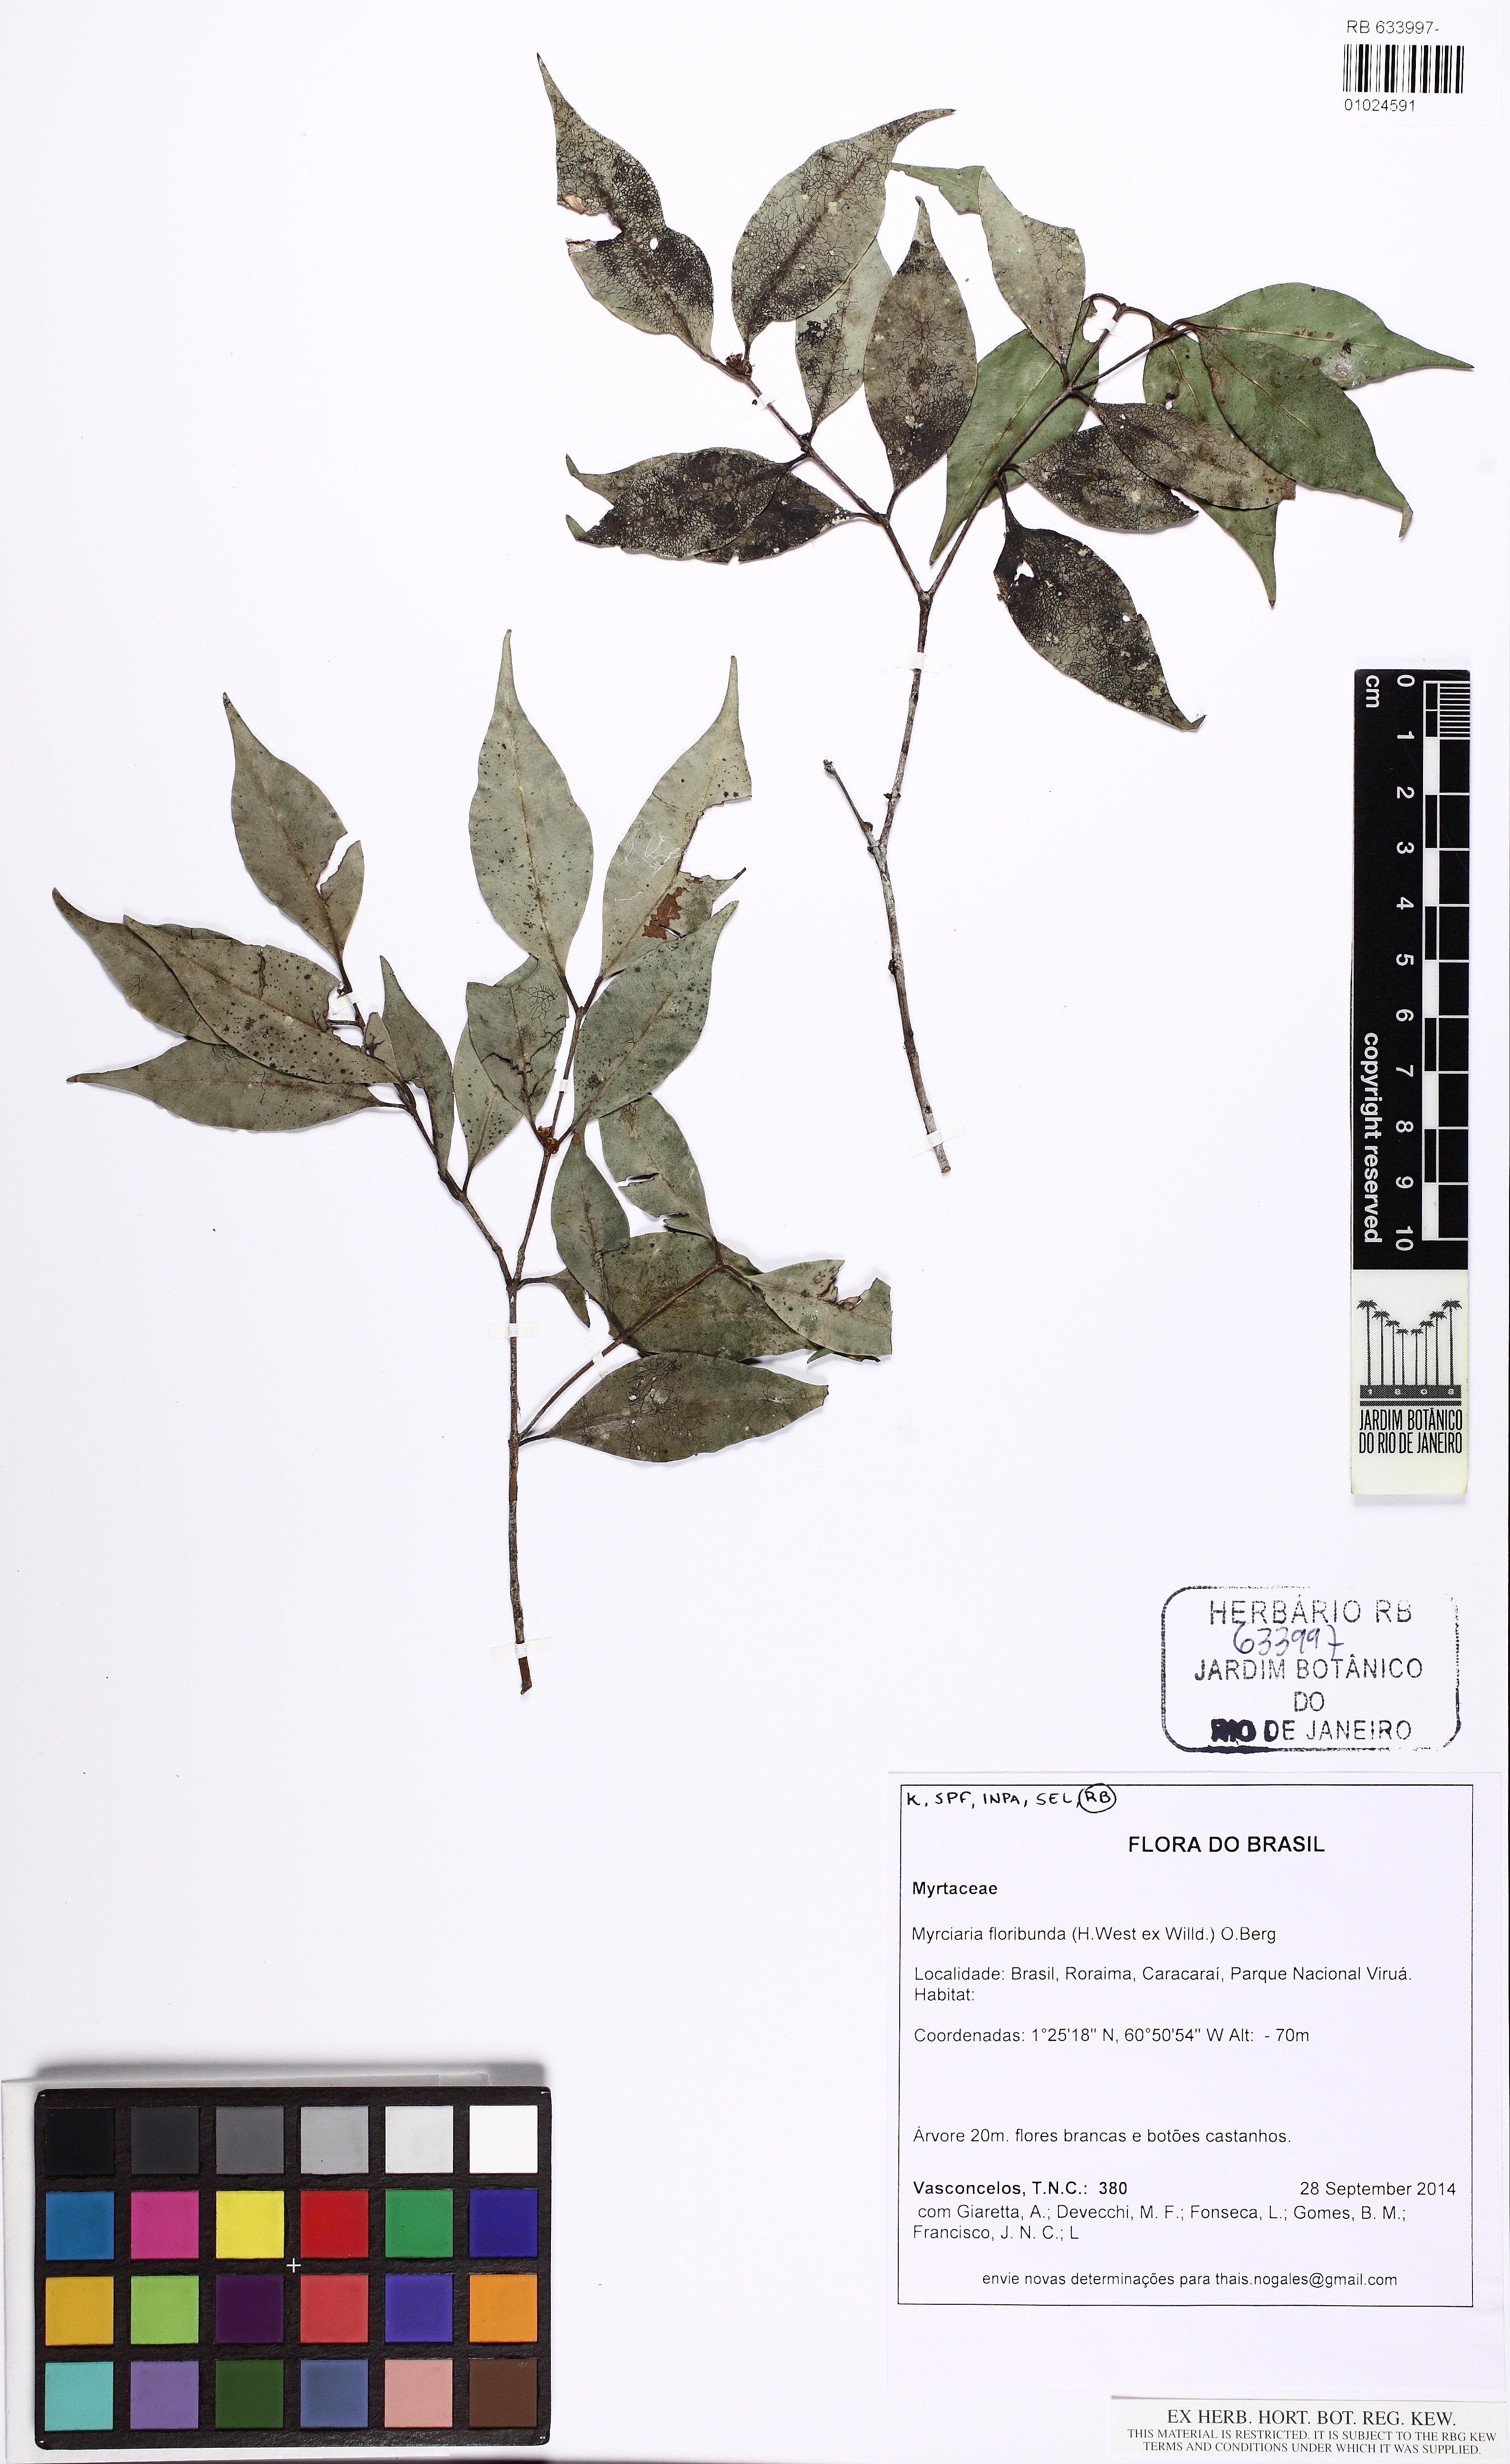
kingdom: Plantae
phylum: Tracheophyta
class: Magnoliopsida
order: Myrtales
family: Myrtaceae
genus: Myrciaria
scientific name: Myrciaria floribunda
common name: Guavaberry
